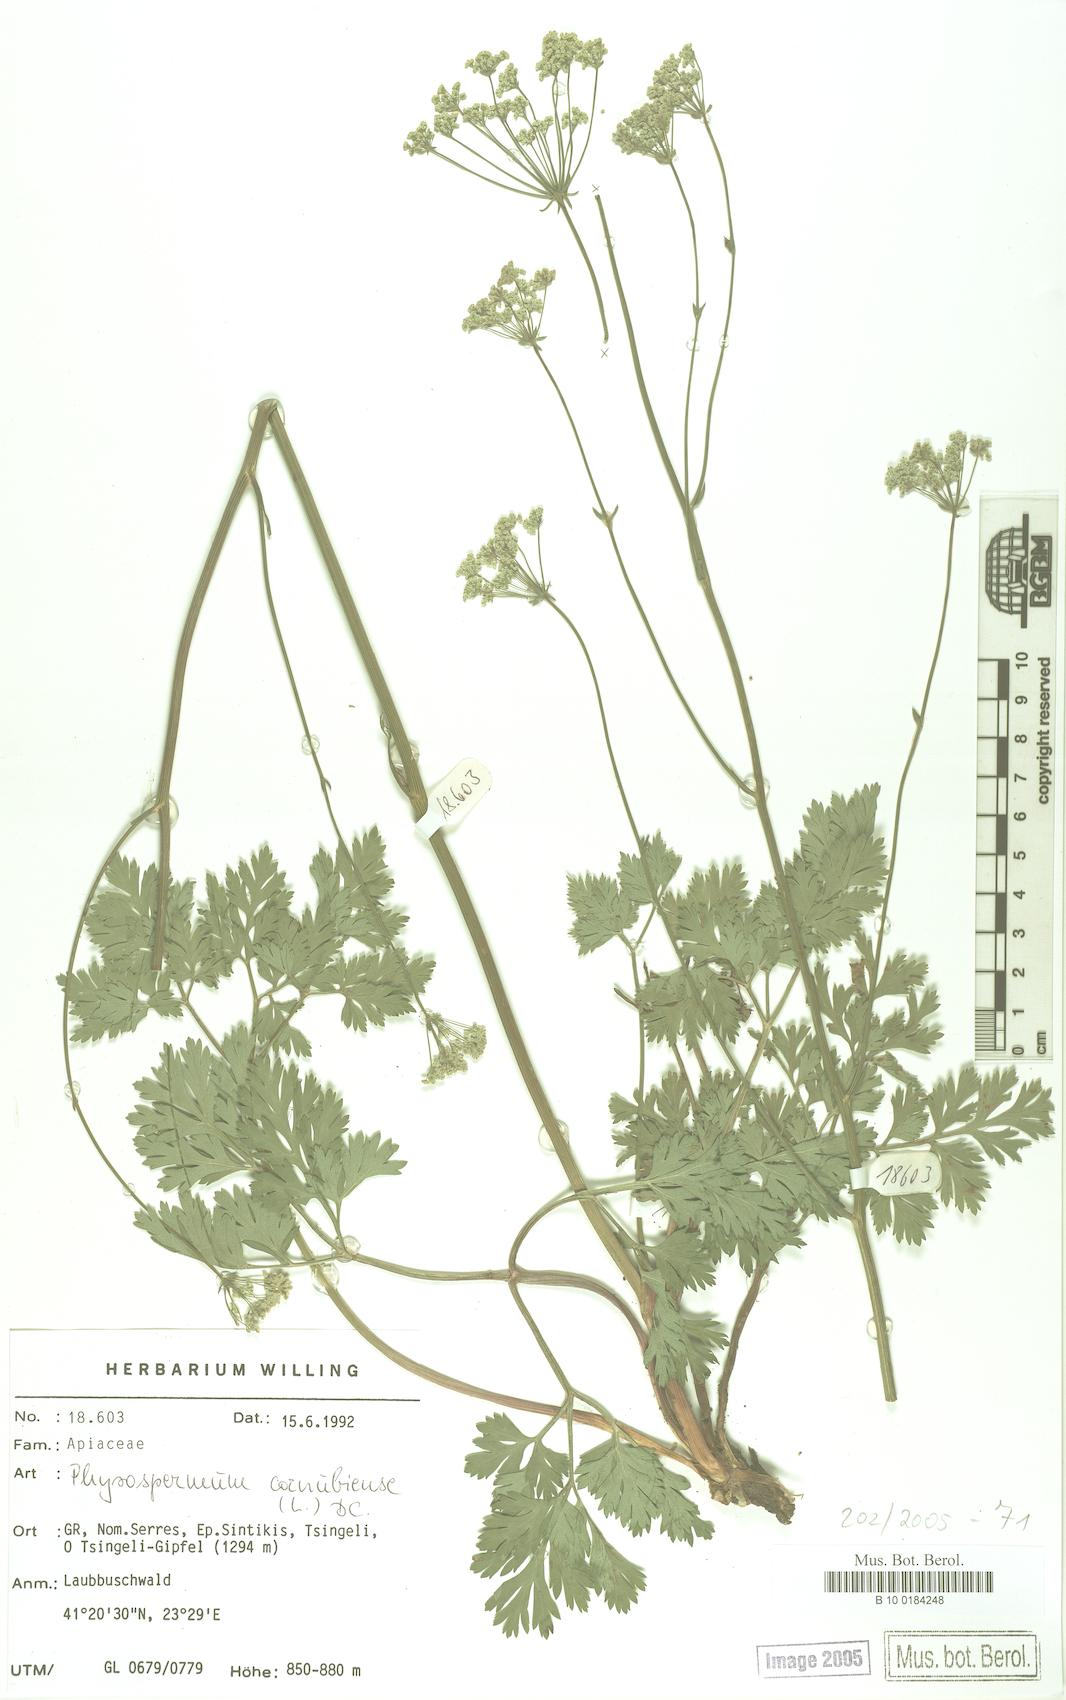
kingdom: Plantae
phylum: Tracheophyta
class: Magnoliopsida
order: Apiales
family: Apiaceae
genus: Physospermum
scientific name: Physospermum cornubiense
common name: Bladderseed
